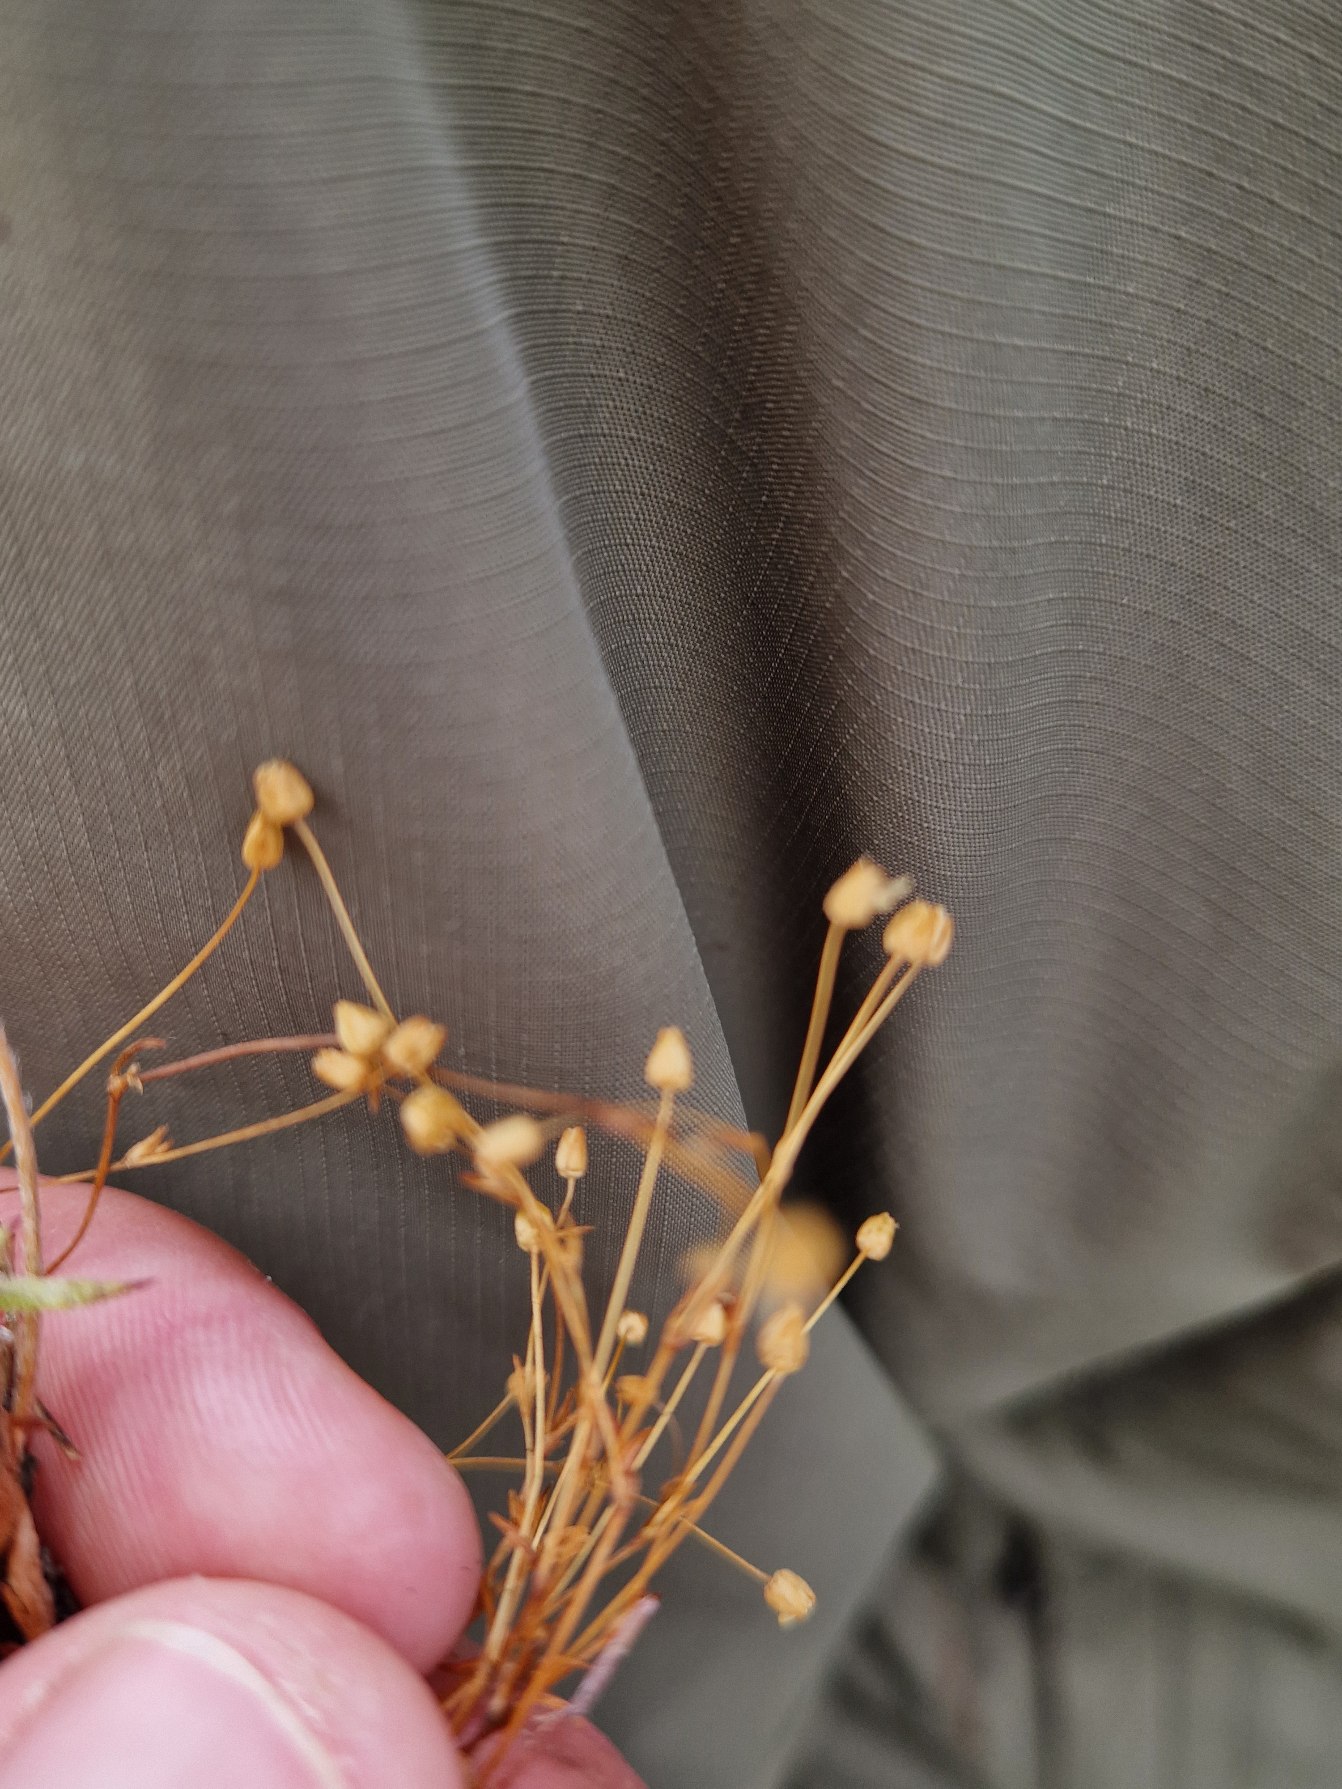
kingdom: Plantae
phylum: Tracheophyta
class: Magnoliopsida
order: Caryophyllales
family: Caryophyllaceae
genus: Sagina
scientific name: Sagina maritima
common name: Strand-firling
